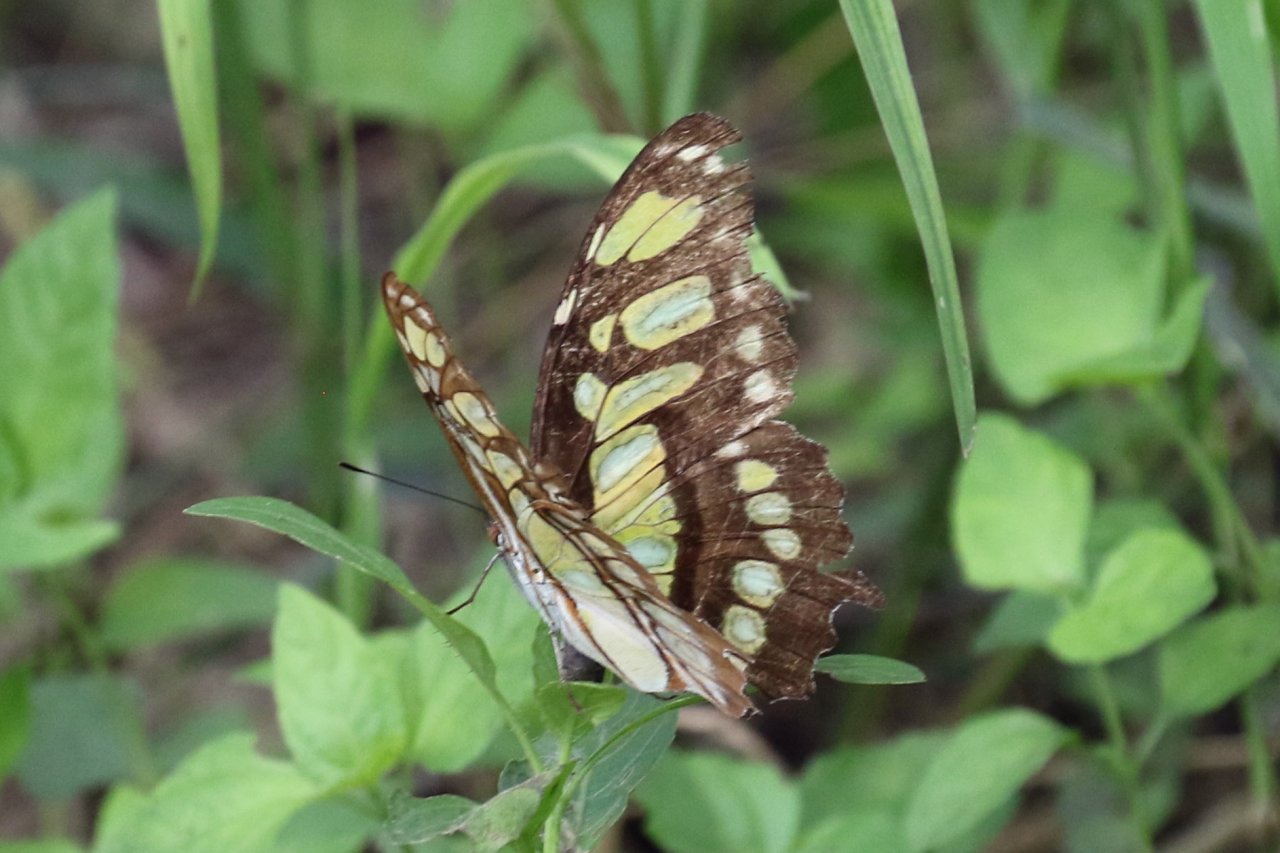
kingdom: Animalia
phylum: Arthropoda
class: Insecta
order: Lepidoptera
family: Nymphalidae
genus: Siproeta
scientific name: Siproeta stelenes
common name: Malachite
